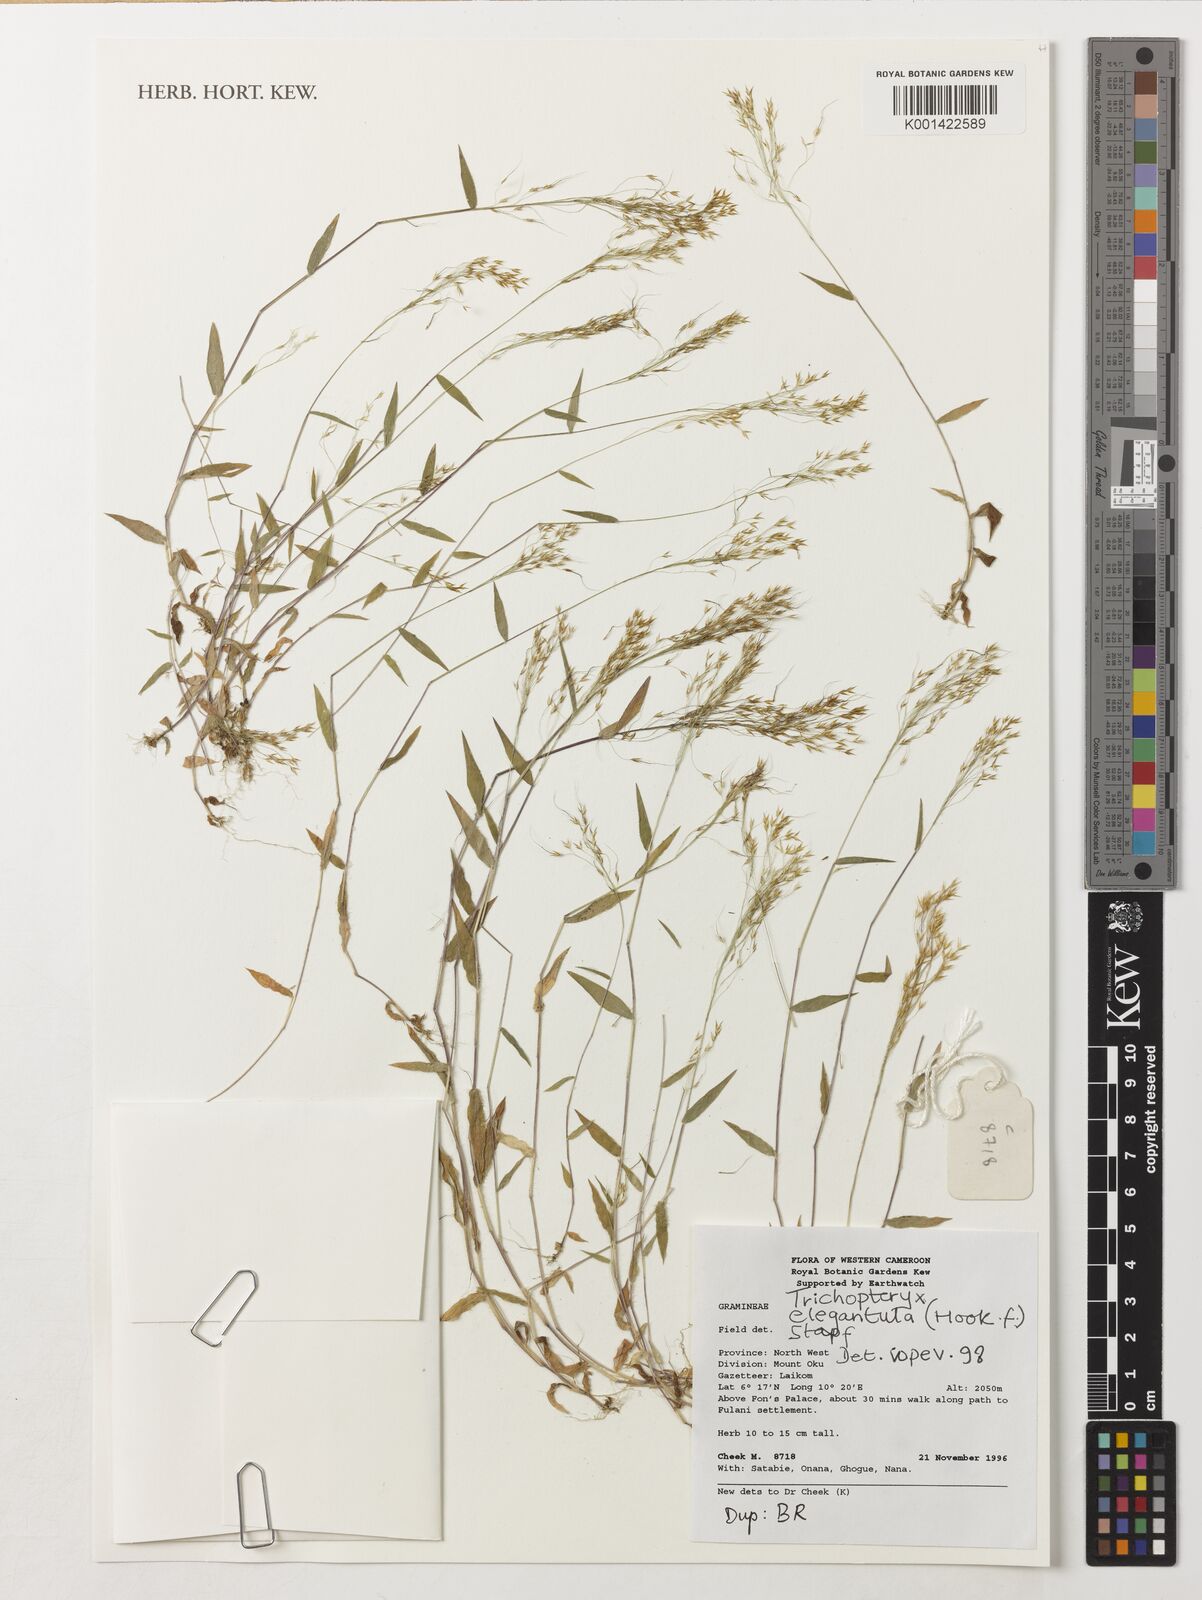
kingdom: Plantae
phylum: Tracheophyta
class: Liliopsida
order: Poales
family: Poaceae
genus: Trichopteryx
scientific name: Trichopteryx elegantula
